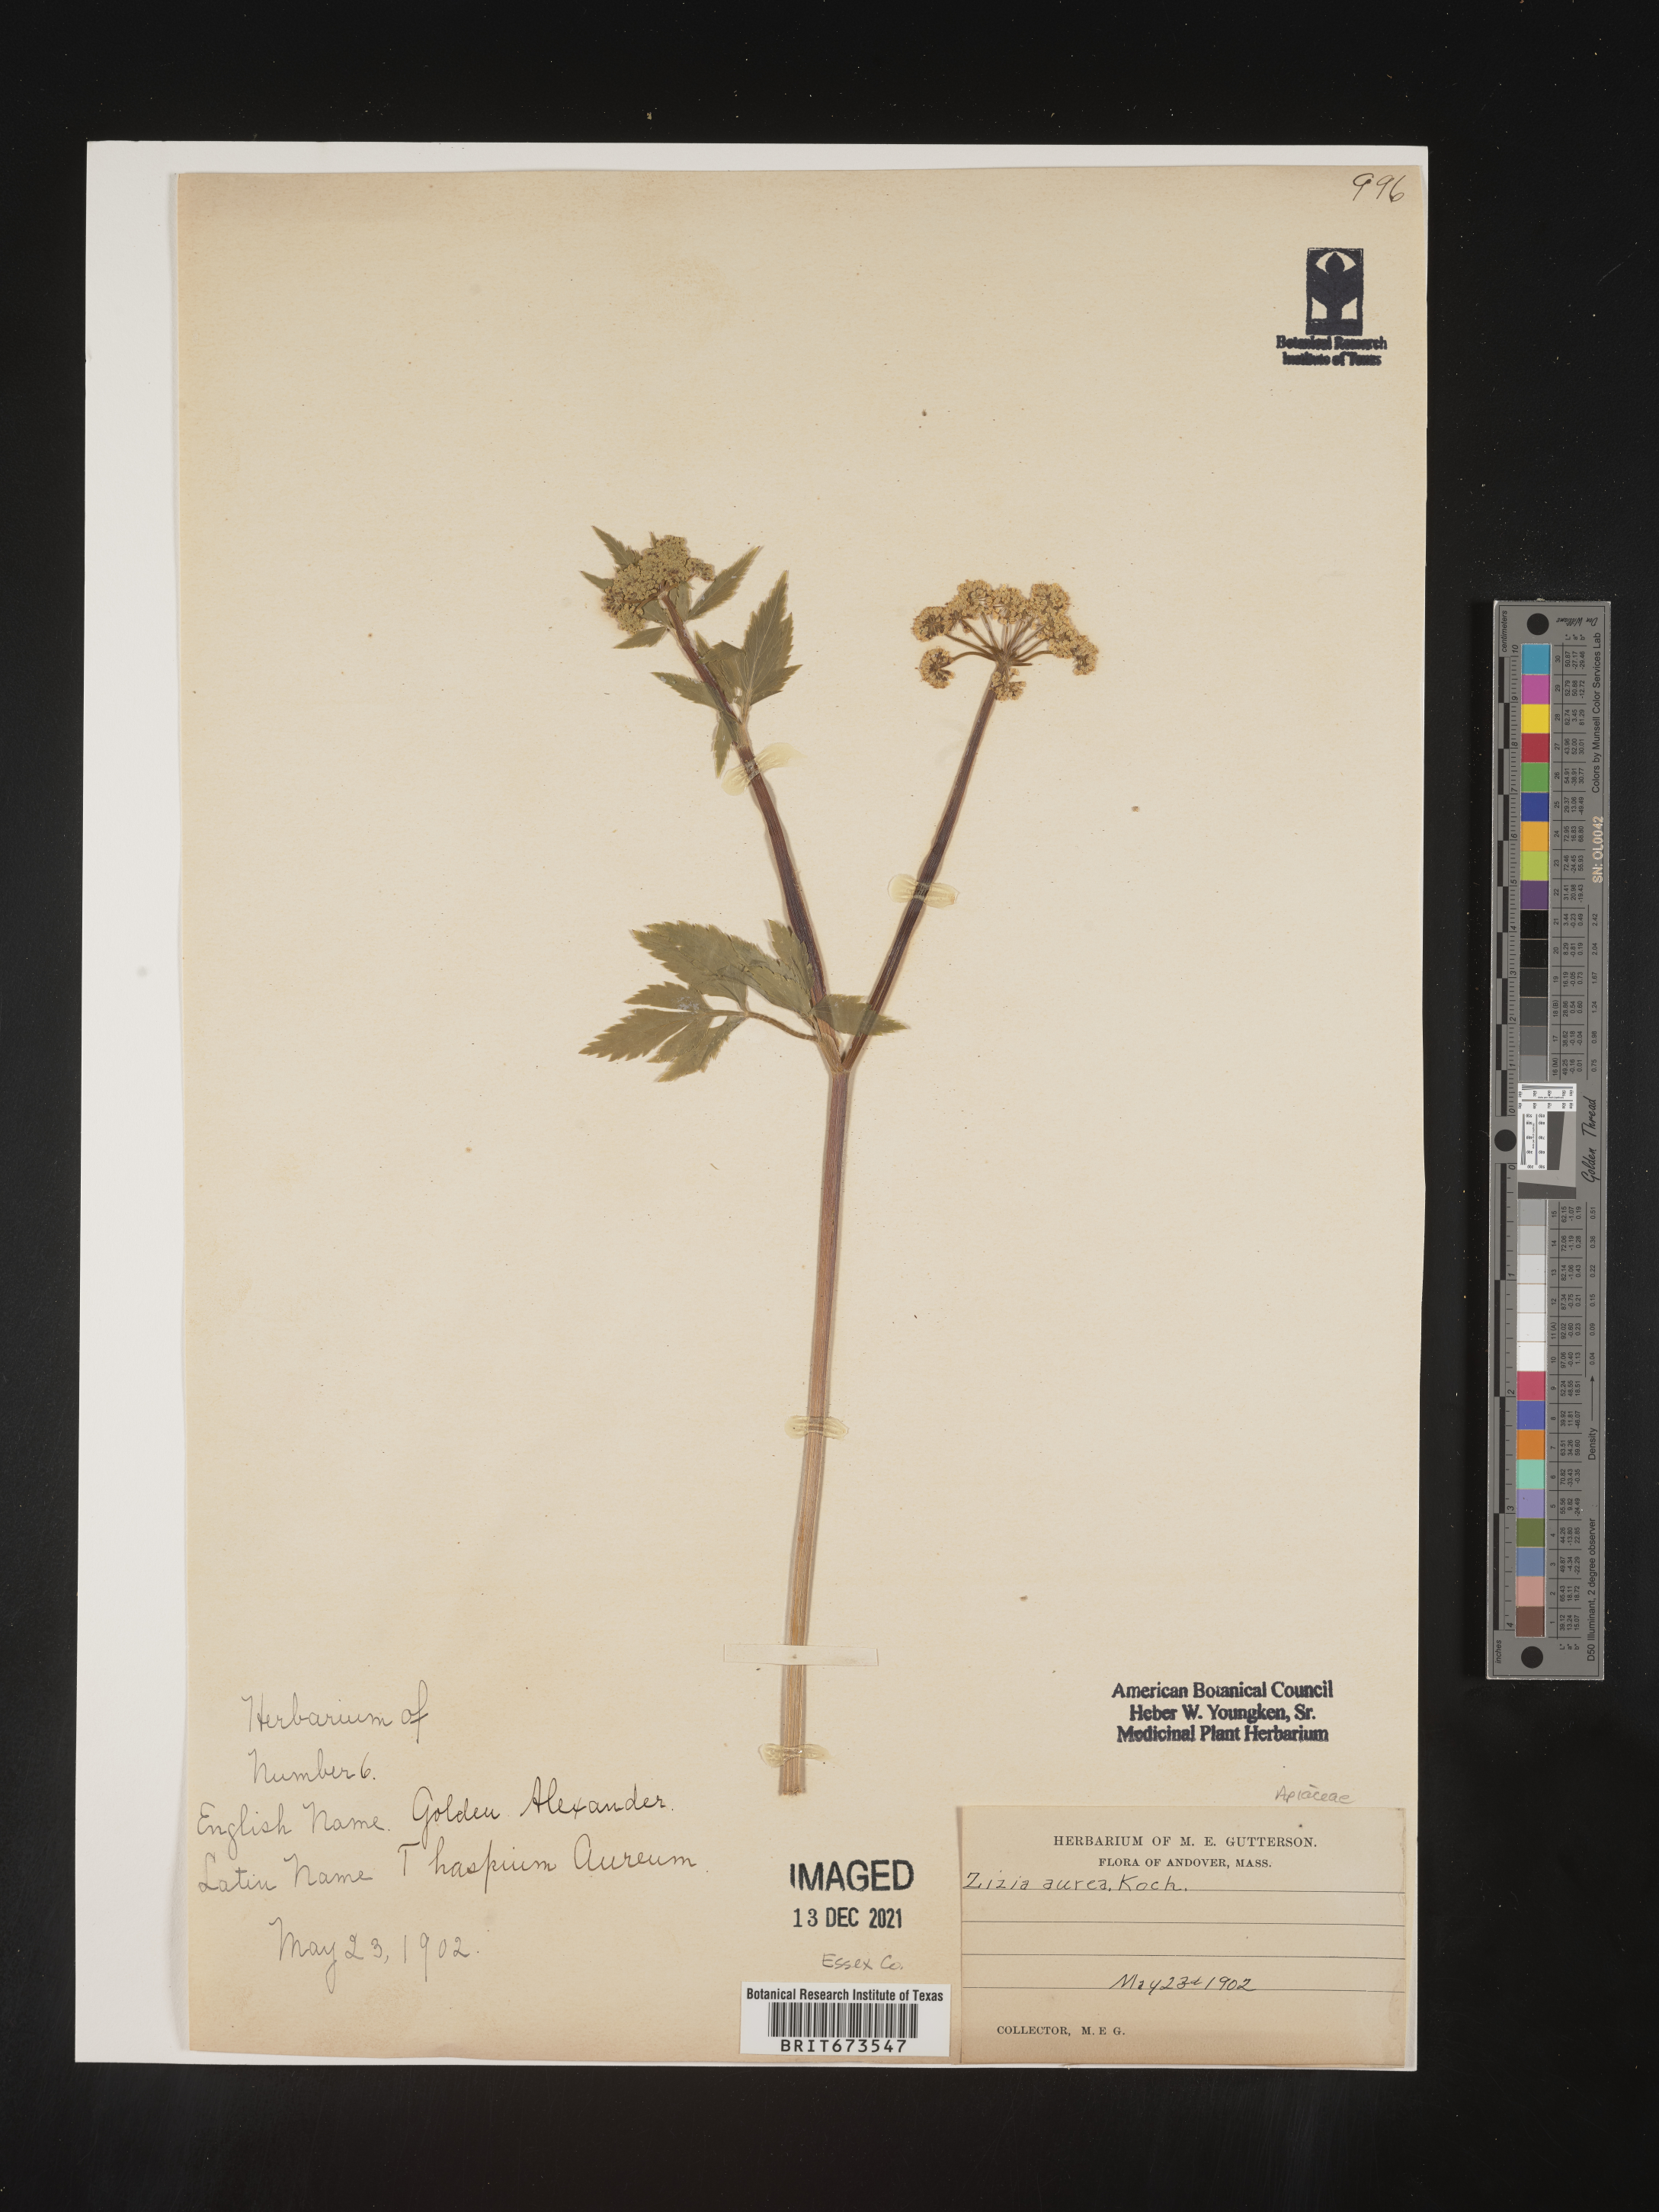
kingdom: Plantae
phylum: Tracheophyta
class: Magnoliopsida
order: Apiales
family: Apiaceae
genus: Zizia
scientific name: Zizia aurea
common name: Golden alexanders
